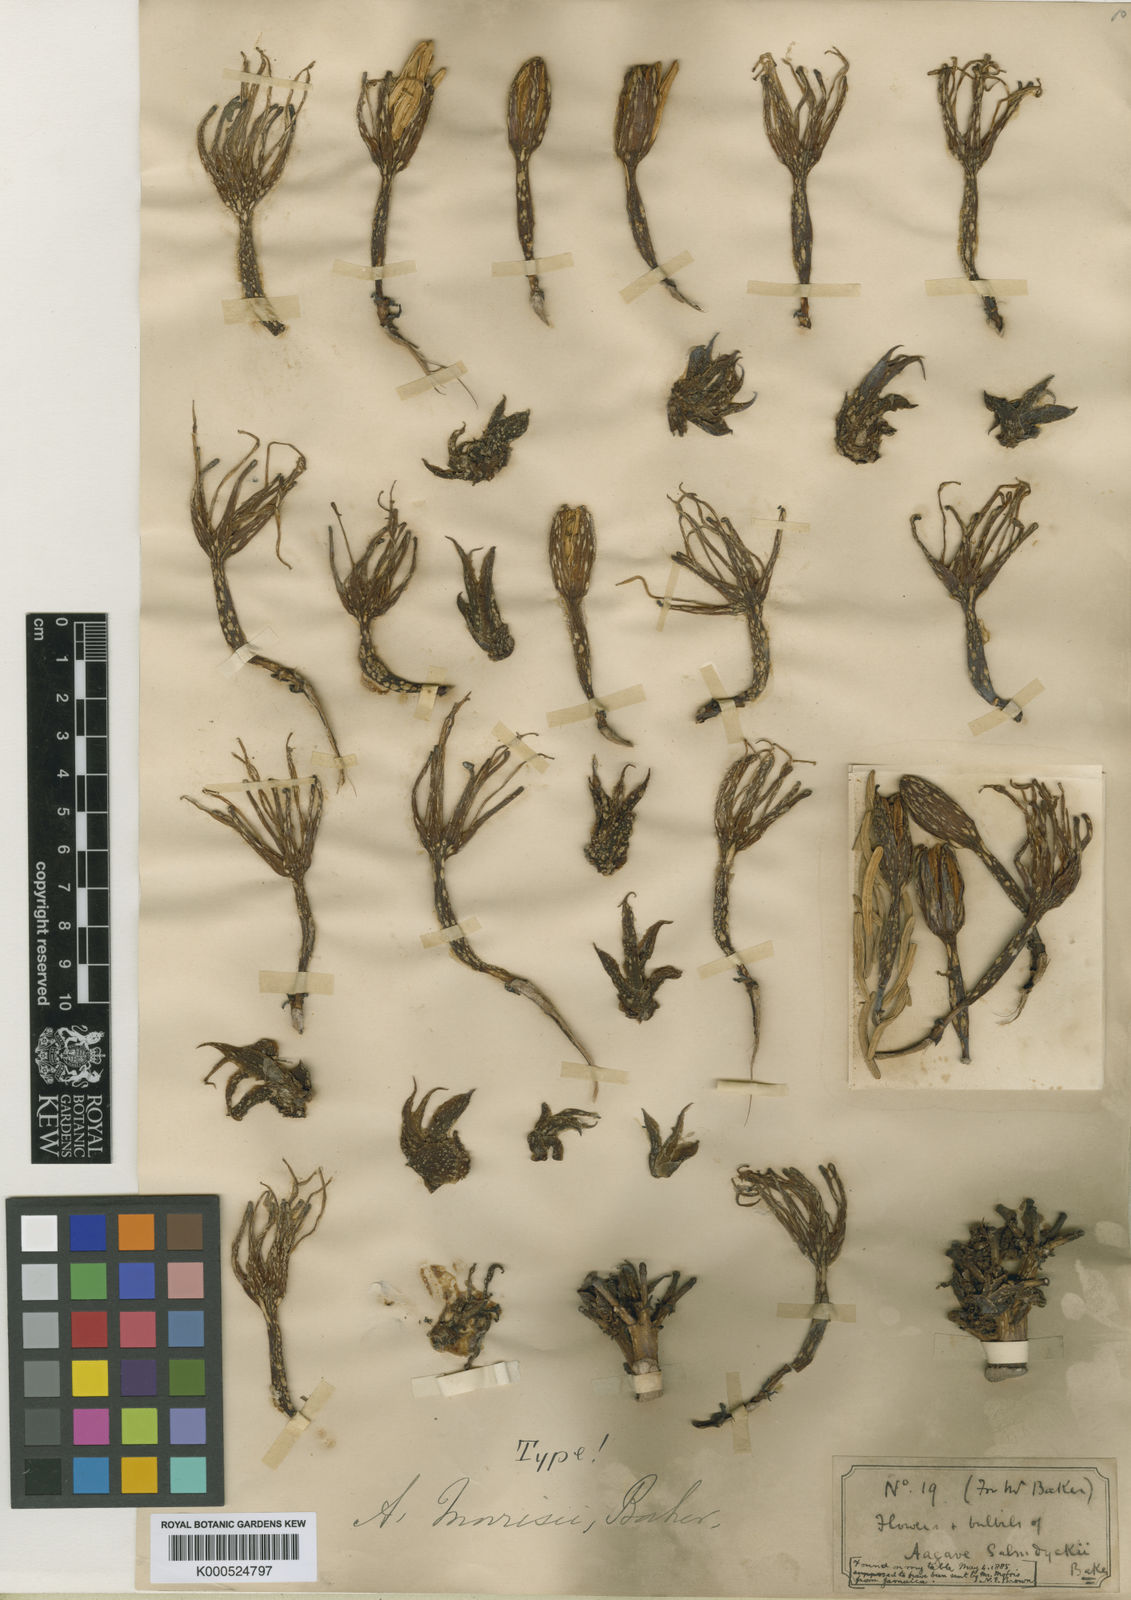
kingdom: Plantae
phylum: Tracheophyta
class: Liliopsida
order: Asparagales
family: Asparagaceae
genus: Agave
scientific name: Agave sobolifera
